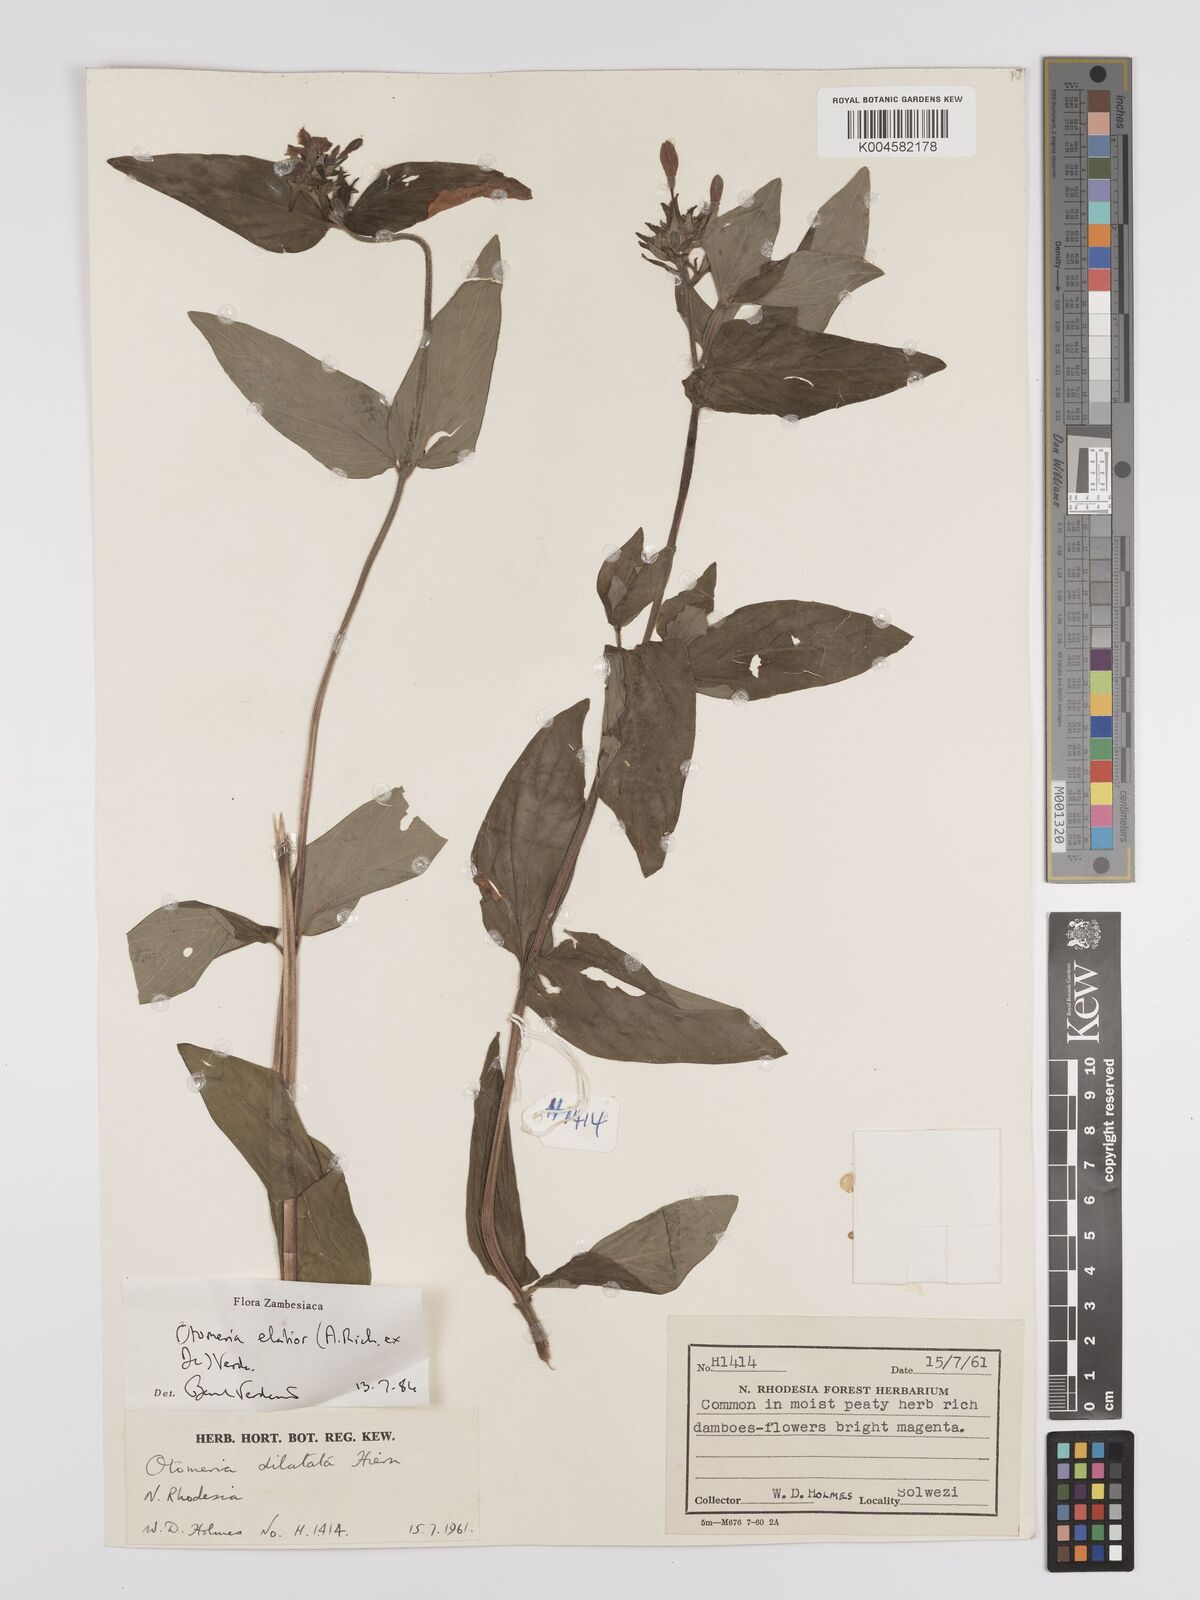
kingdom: Plantae
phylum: Tracheophyta
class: Magnoliopsida
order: Gentianales
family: Rubiaceae
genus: Otomeria
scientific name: Otomeria elatior
